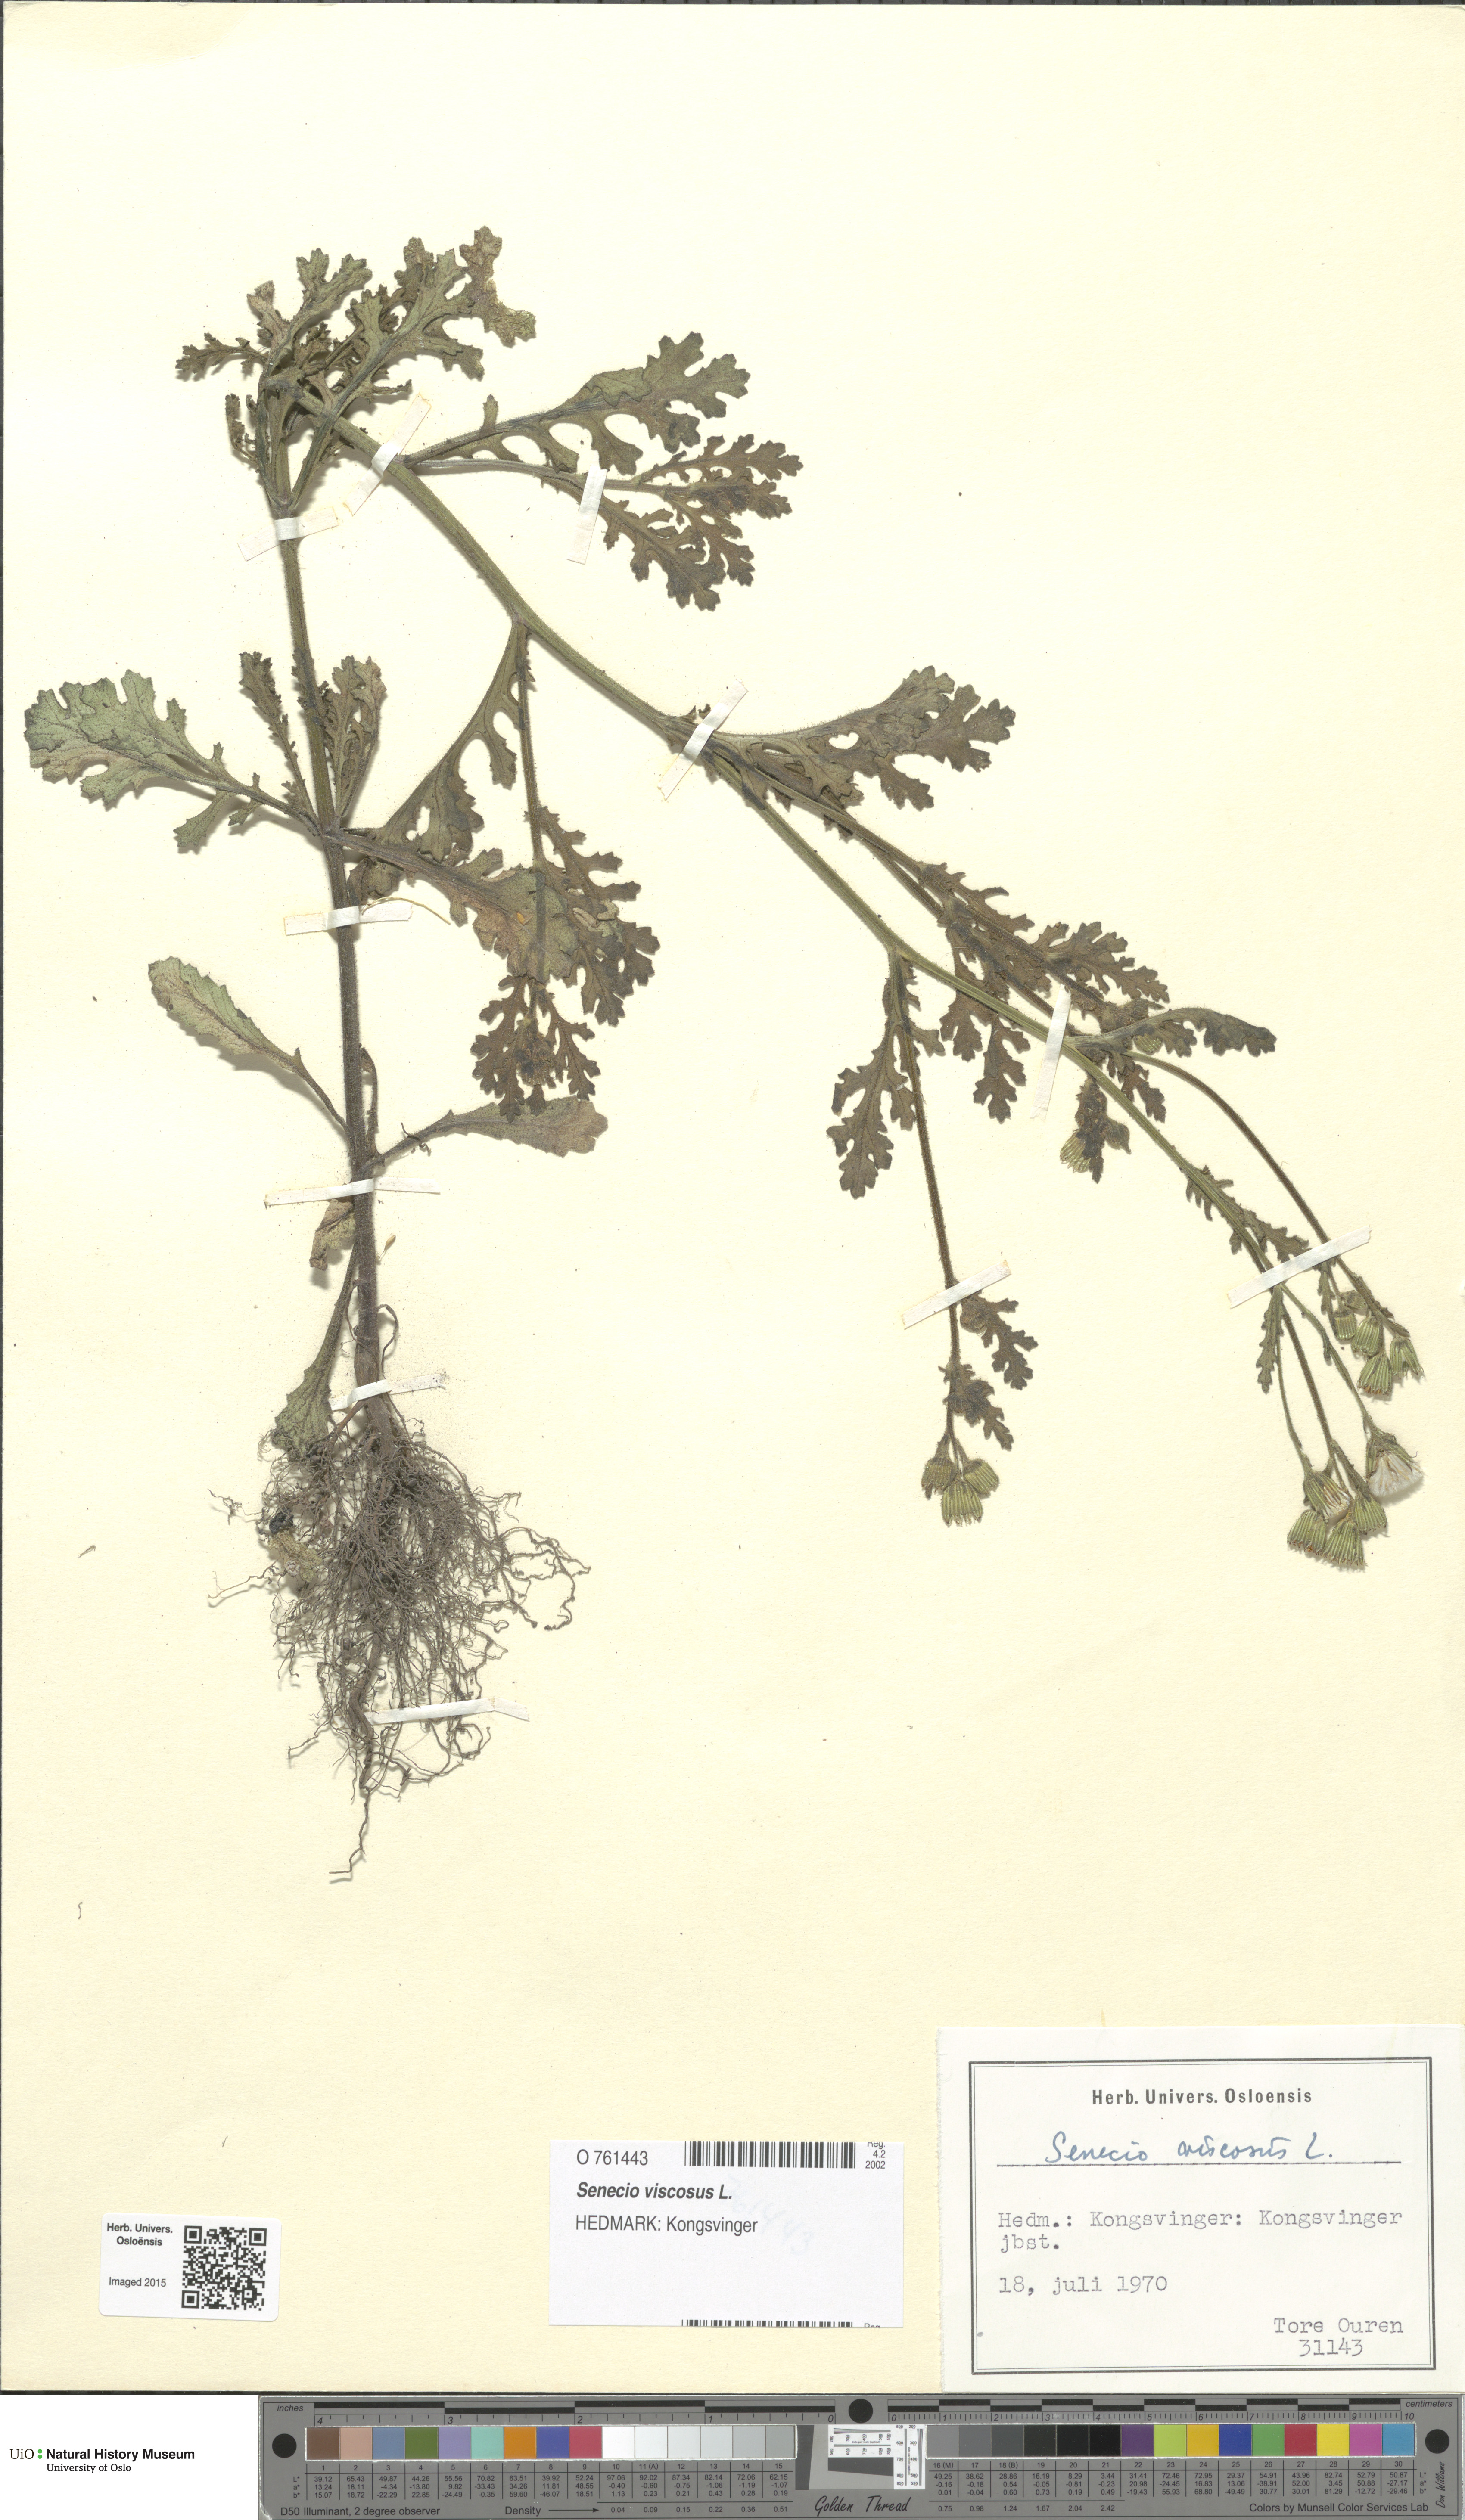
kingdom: Plantae
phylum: Tracheophyta
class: Magnoliopsida
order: Asterales
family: Asteraceae
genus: Senecio
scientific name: Senecio viscosus
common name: Sticky groundsel
